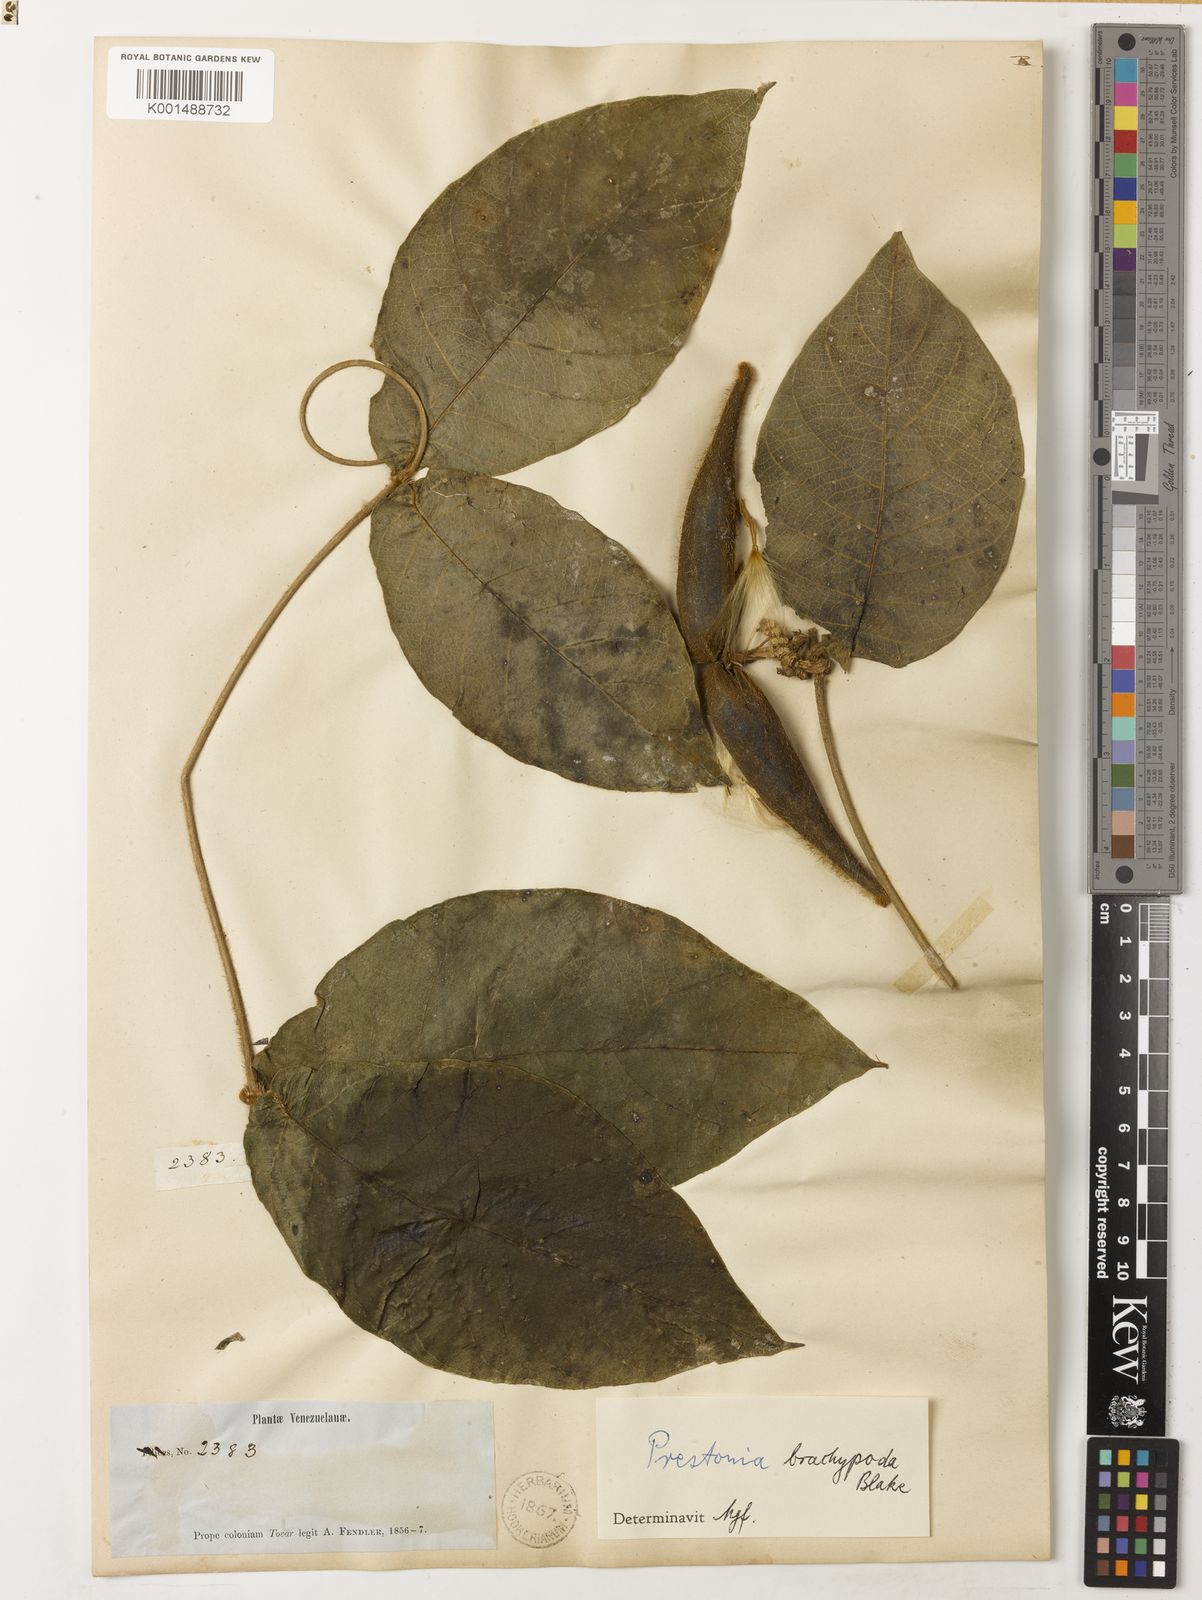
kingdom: Plantae
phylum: Tracheophyta
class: Magnoliopsida
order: Gentianales
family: Apocynaceae
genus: Prestonia
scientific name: Prestonia tomentosa
